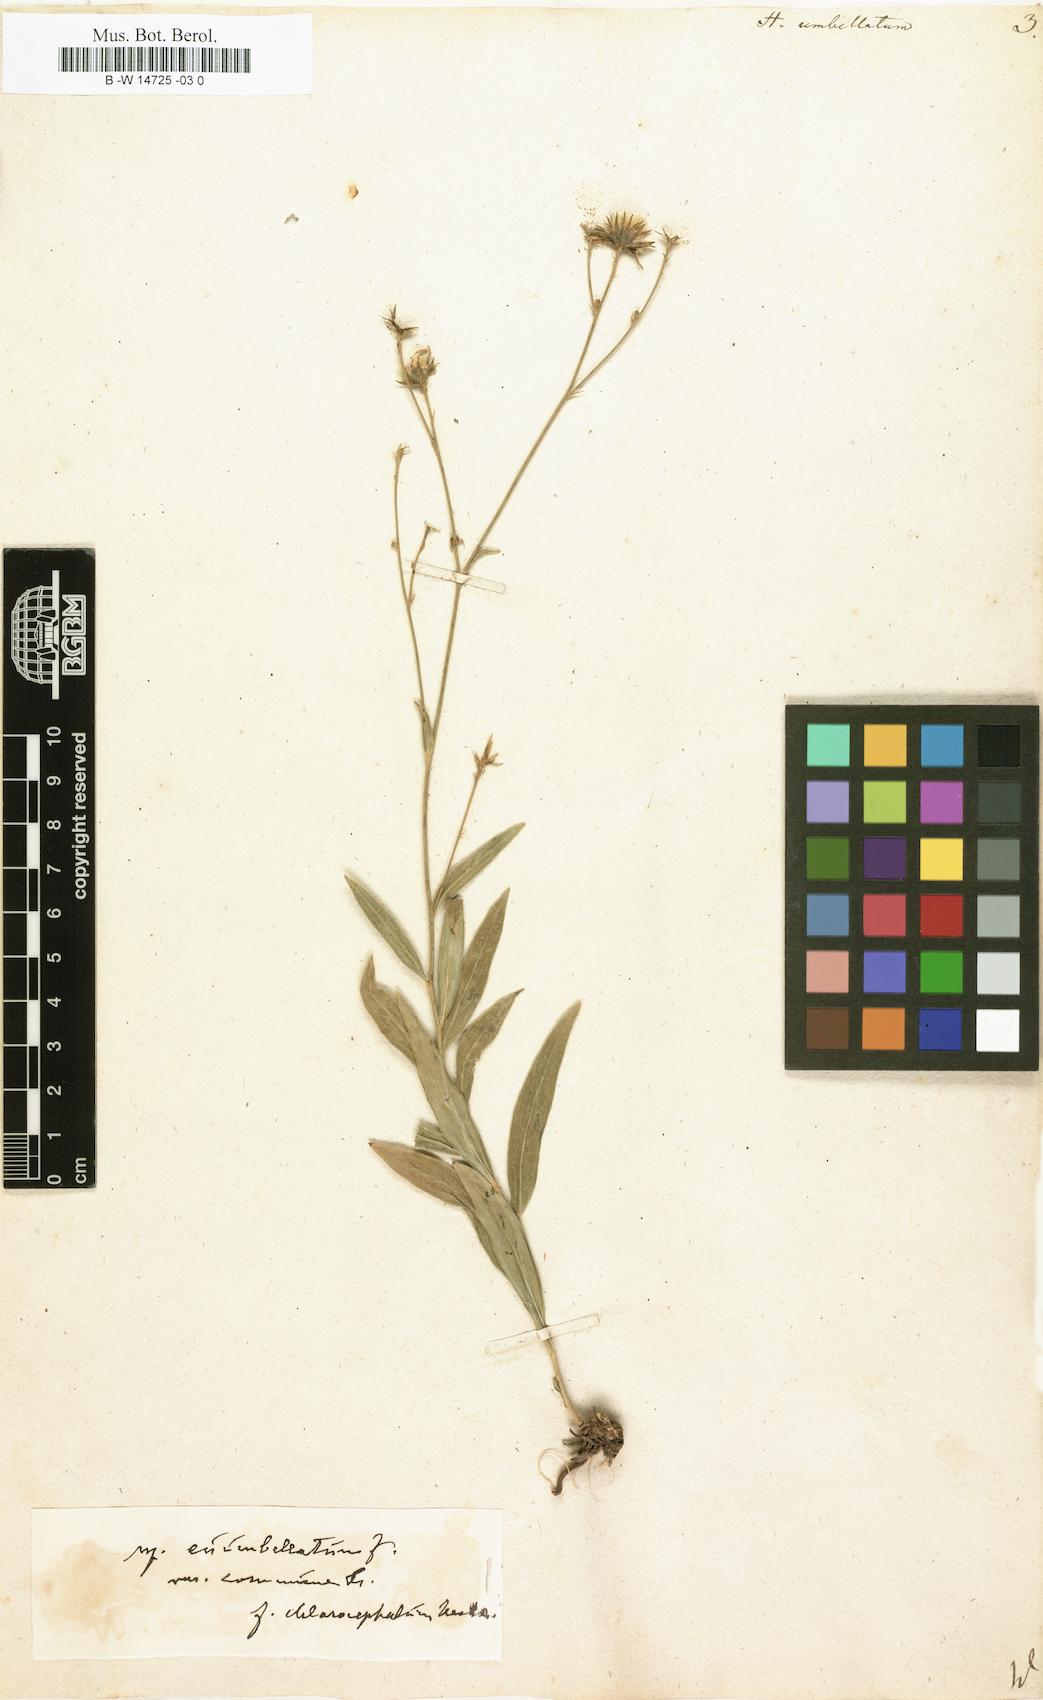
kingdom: Plantae
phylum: Tracheophyta
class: Magnoliopsida
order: Asterales
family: Asteraceae
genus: Hieracium
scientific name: Hieracium umbellatum
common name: Northern hawkweed
